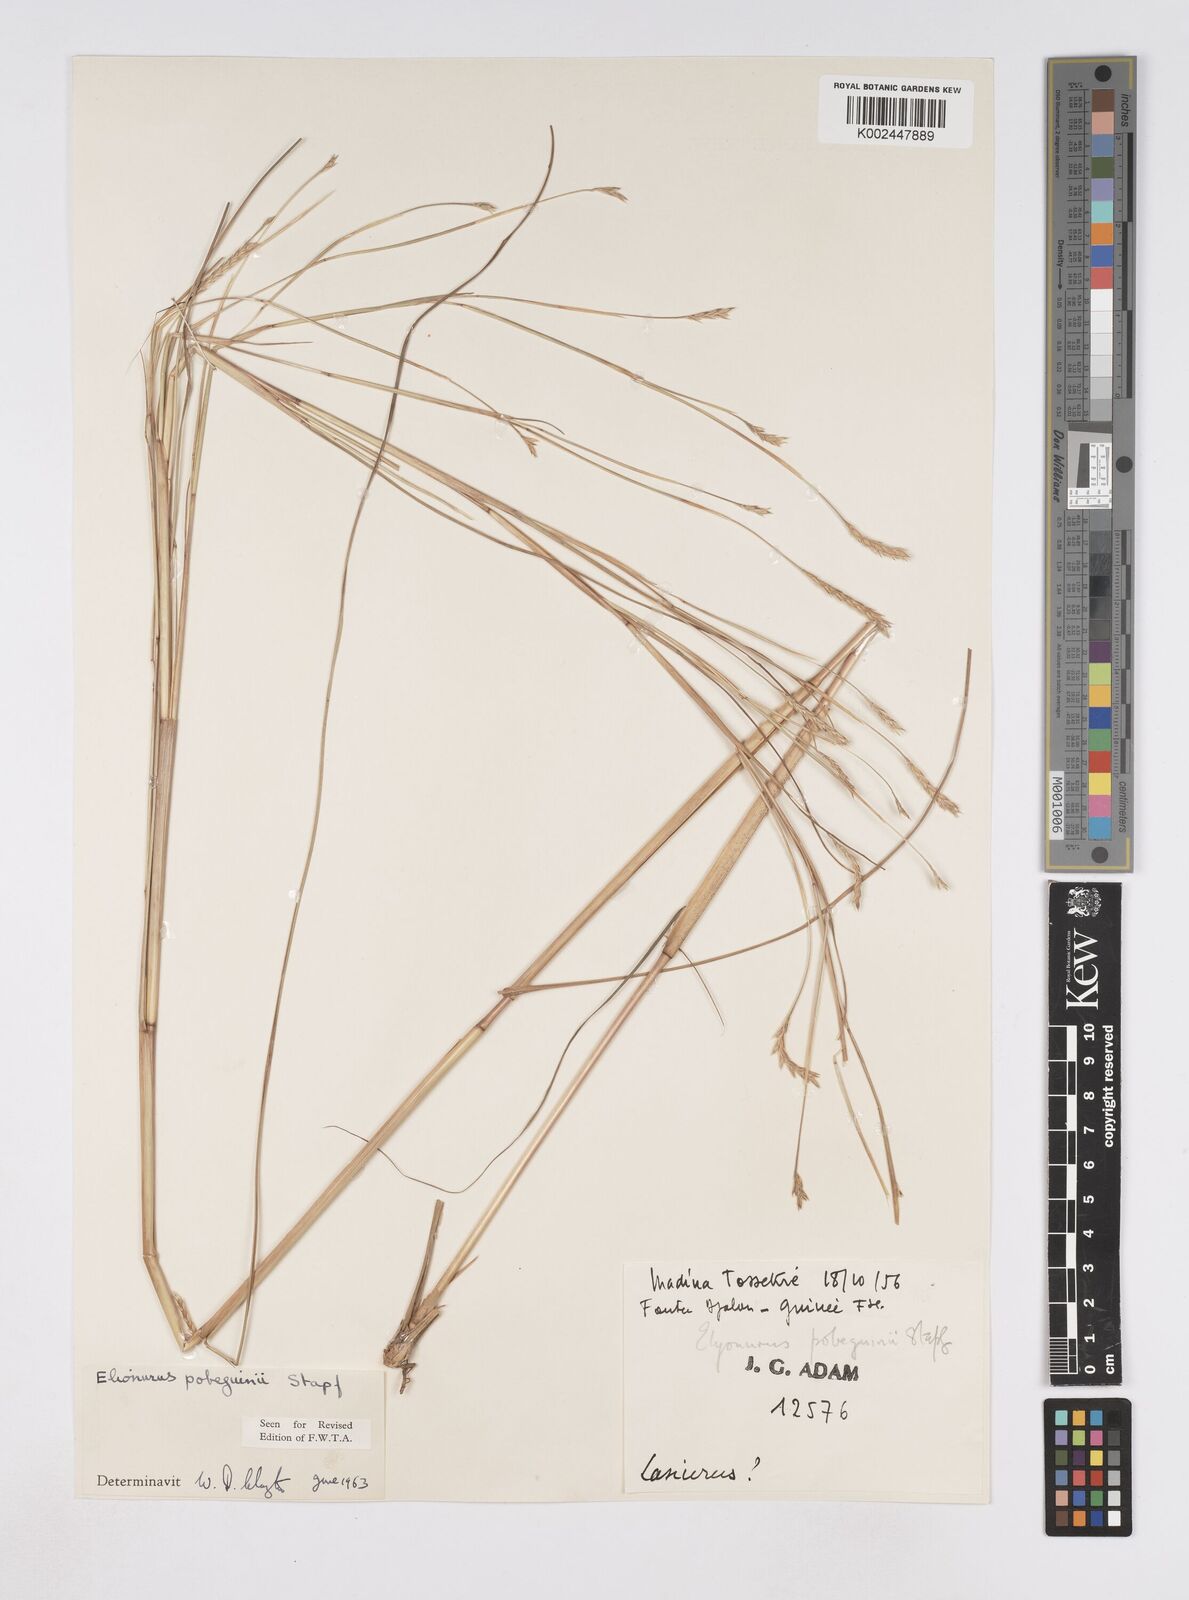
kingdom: Plantae
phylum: Tracheophyta
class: Liliopsida
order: Poales
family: Poaceae
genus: Elionurus
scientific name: Elionurus ciliaris
